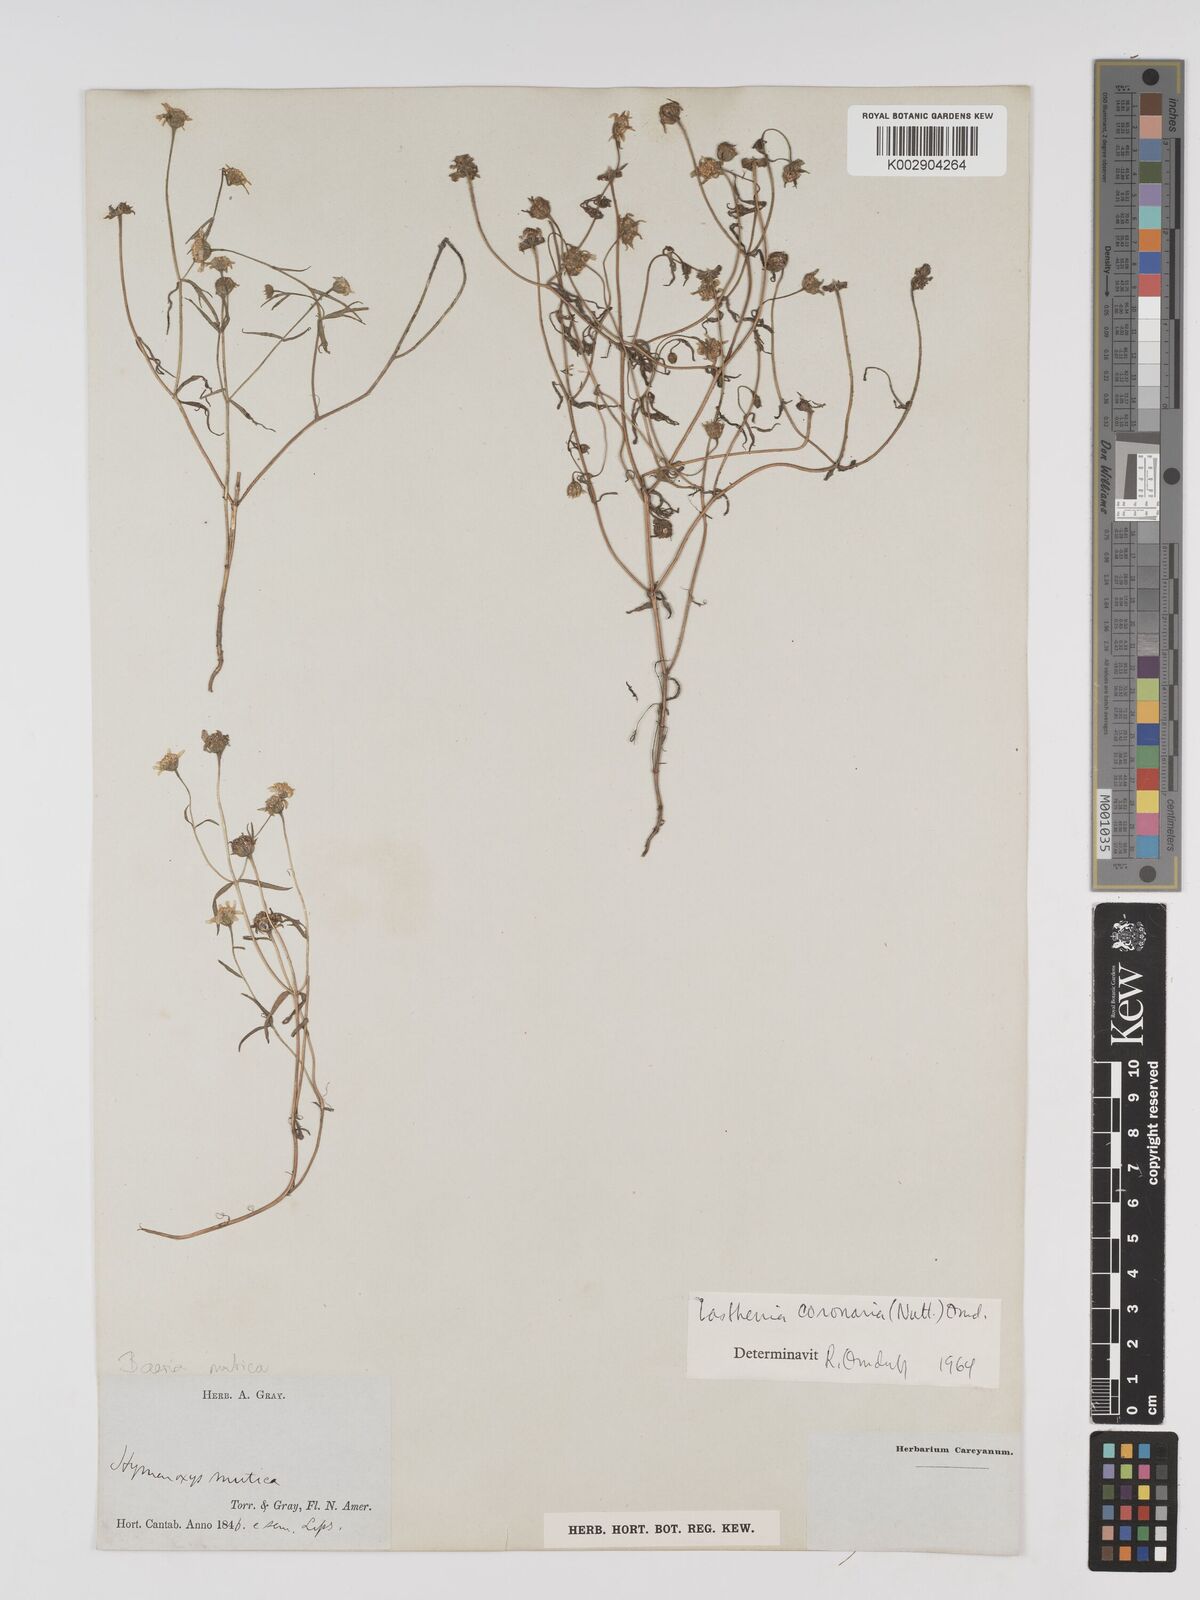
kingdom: Plantae
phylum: Tracheophyta
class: Magnoliopsida
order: Asterales
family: Asteraceae
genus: Lasthenia
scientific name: Lasthenia coronaria
